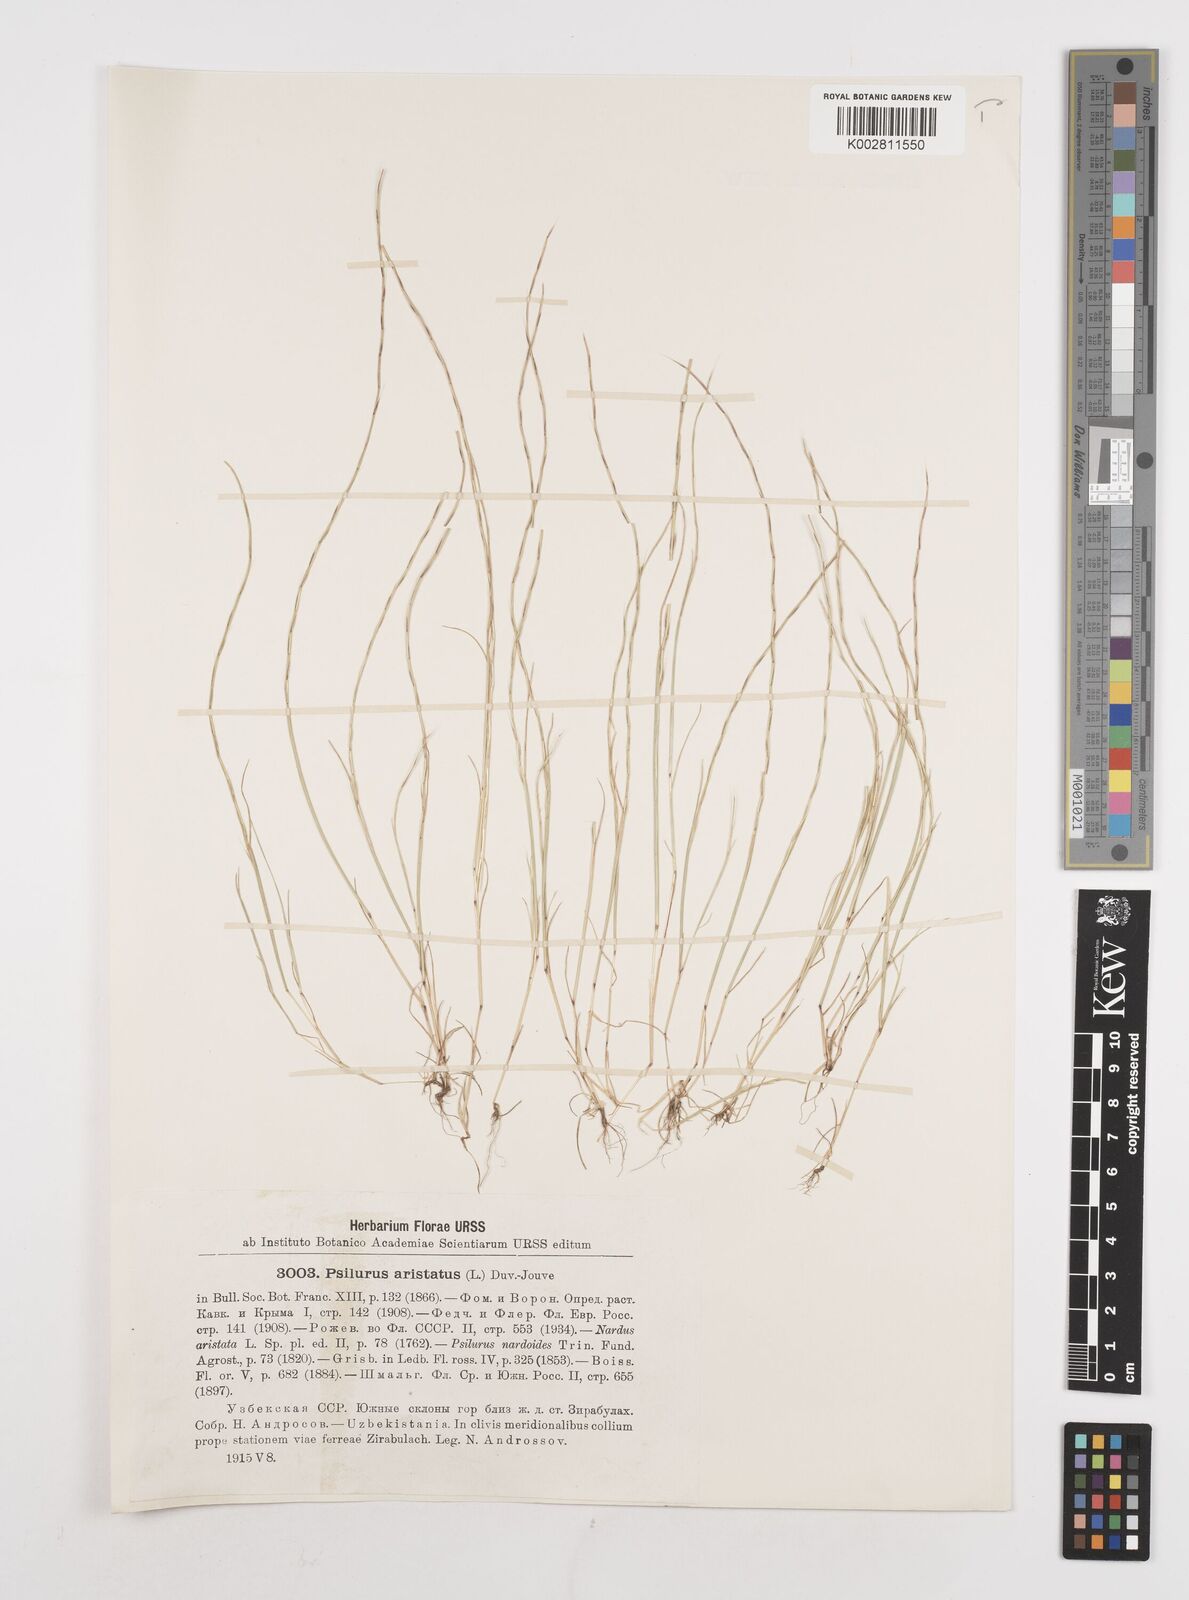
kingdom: Plantae
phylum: Tracheophyta
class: Liliopsida
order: Poales
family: Poaceae
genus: Festuca
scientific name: Festuca incurva
